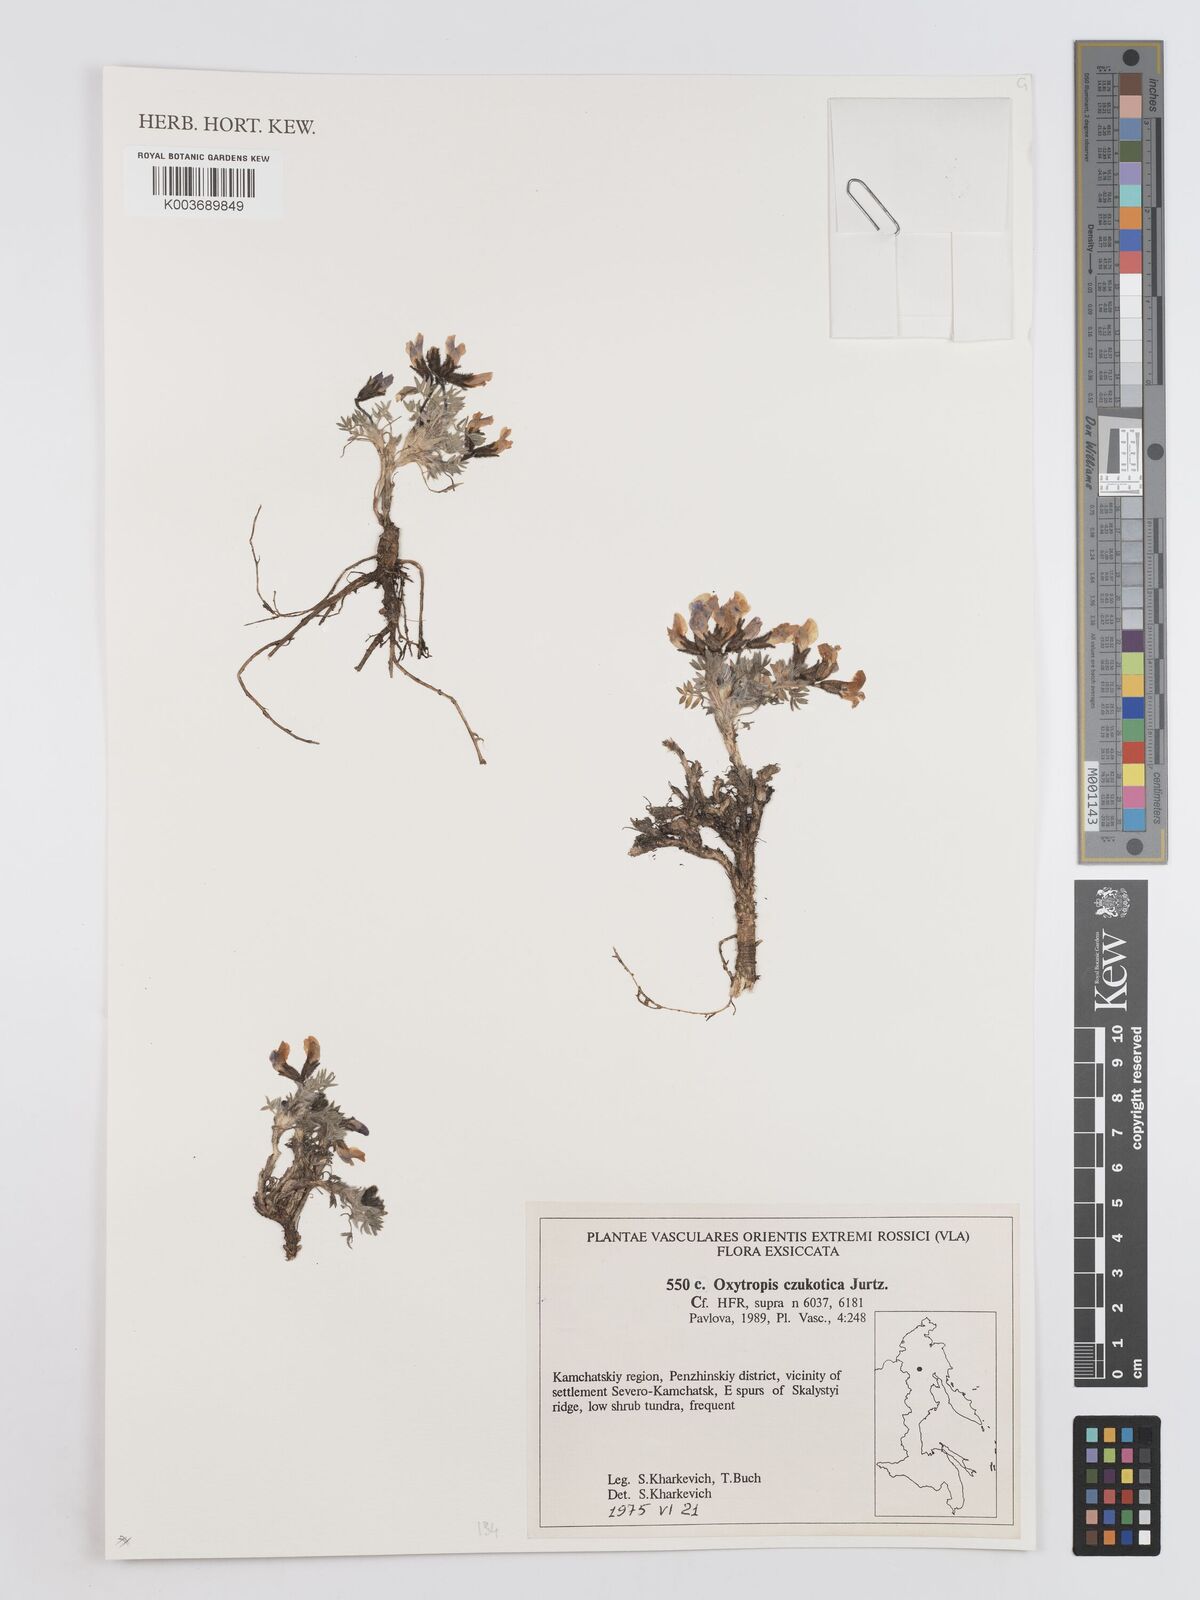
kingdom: Plantae
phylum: Tracheophyta
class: Magnoliopsida
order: Fabales
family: Fabaceae
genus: Oxytropis
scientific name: Oxytropis czukotica
